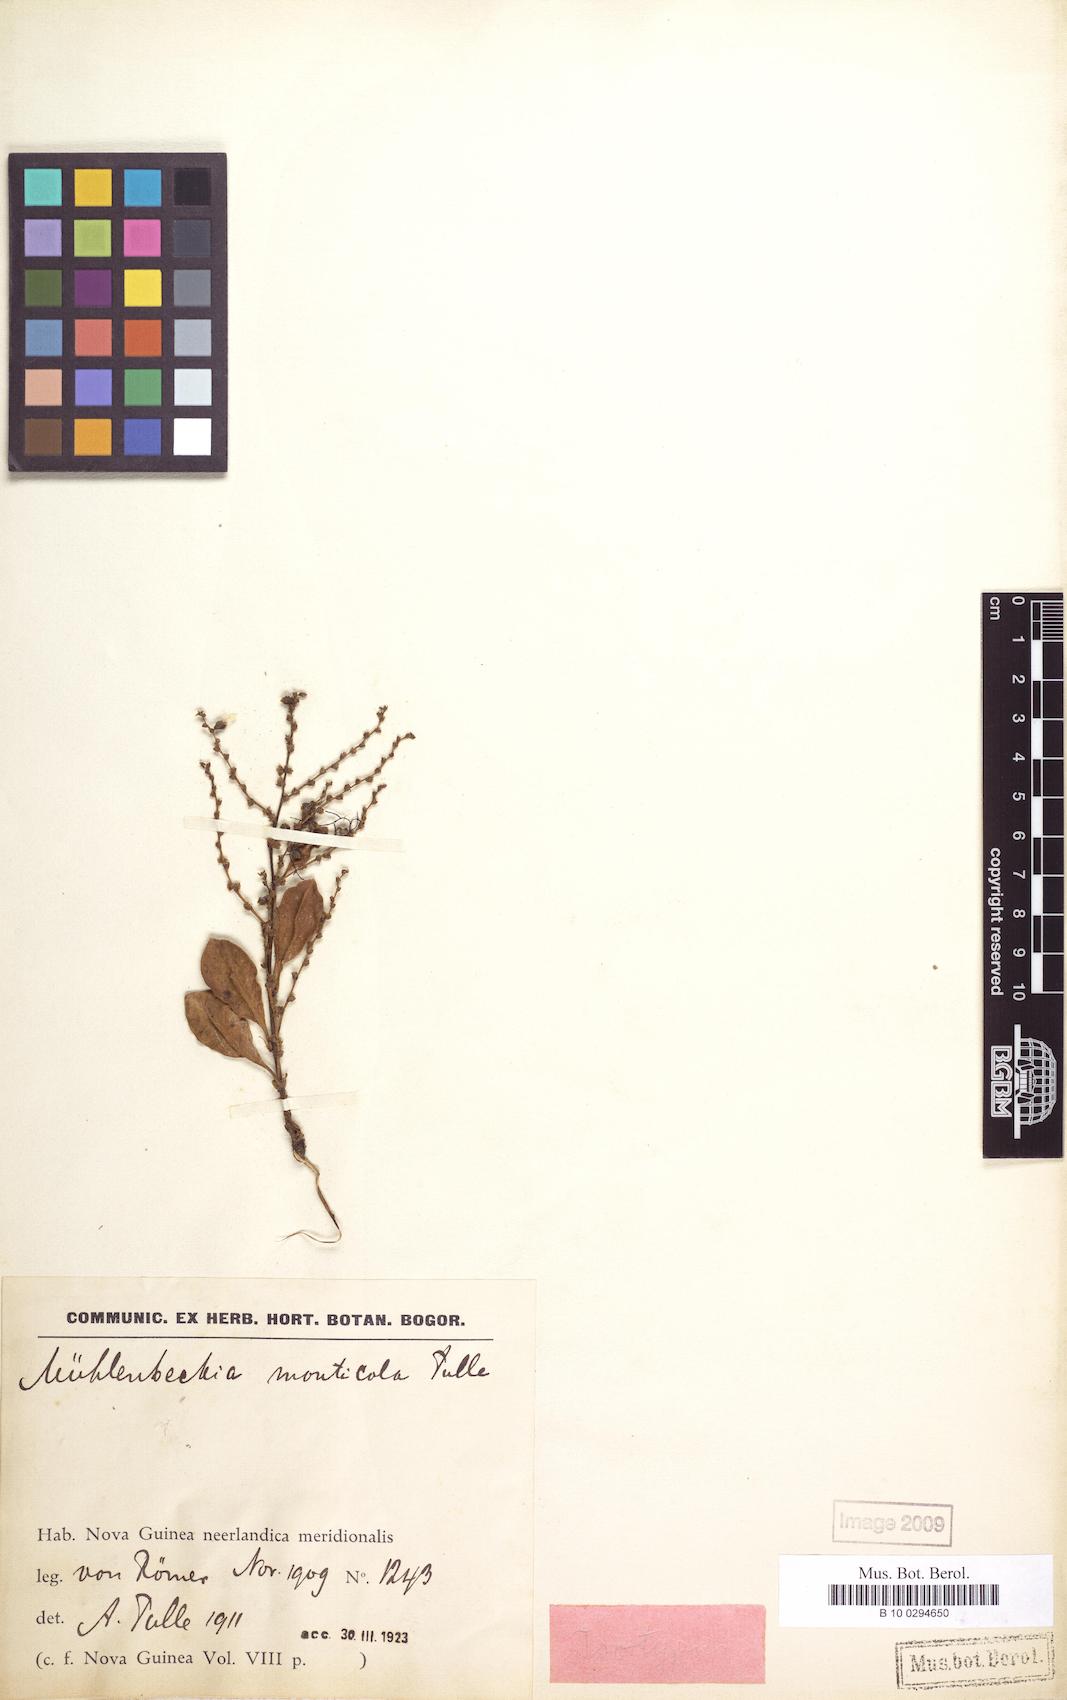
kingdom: Plantae
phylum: Tracheophyta
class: Magnoliopsida
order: Caryophyllales
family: Polygonaceae
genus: Muehlenbeckia
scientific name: Muehlenbeckia monticola
